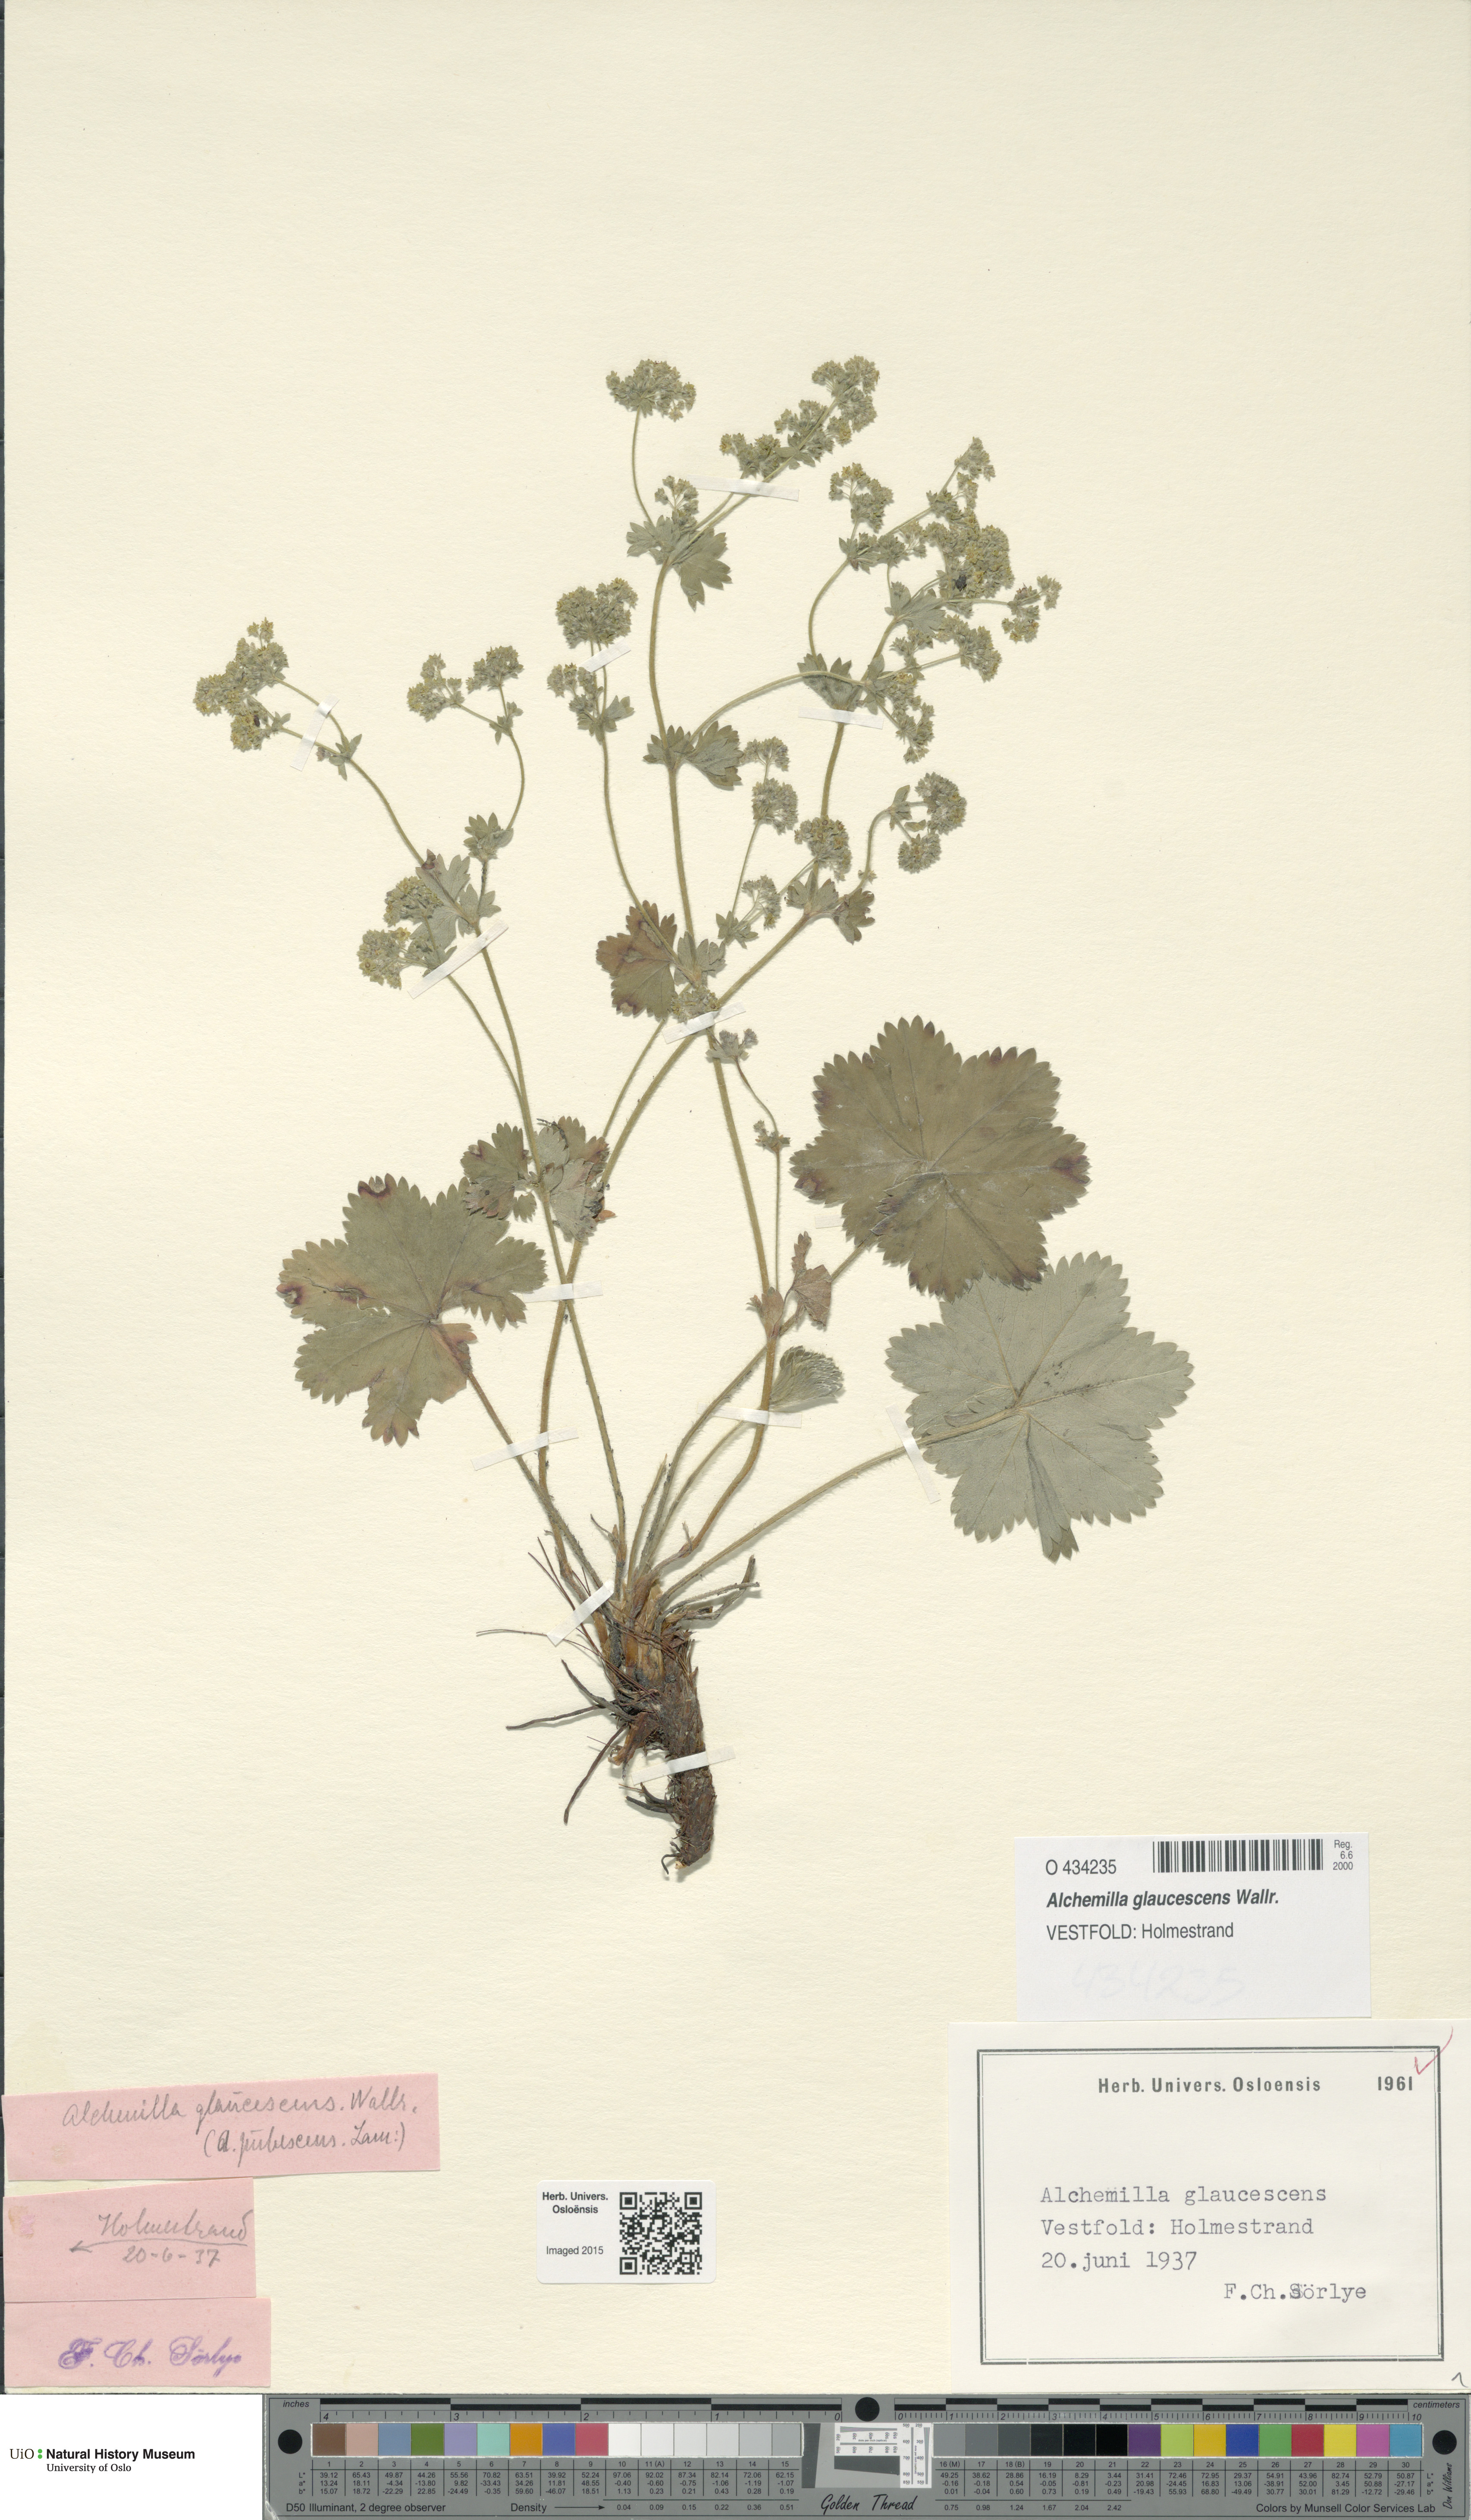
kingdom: Plantae
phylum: Tracheophyta
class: Magnoliopsida
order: Rosales
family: Rosaceae
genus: Alchemilla
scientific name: Alchemilla glaucescens
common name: Silky lady's mantle
